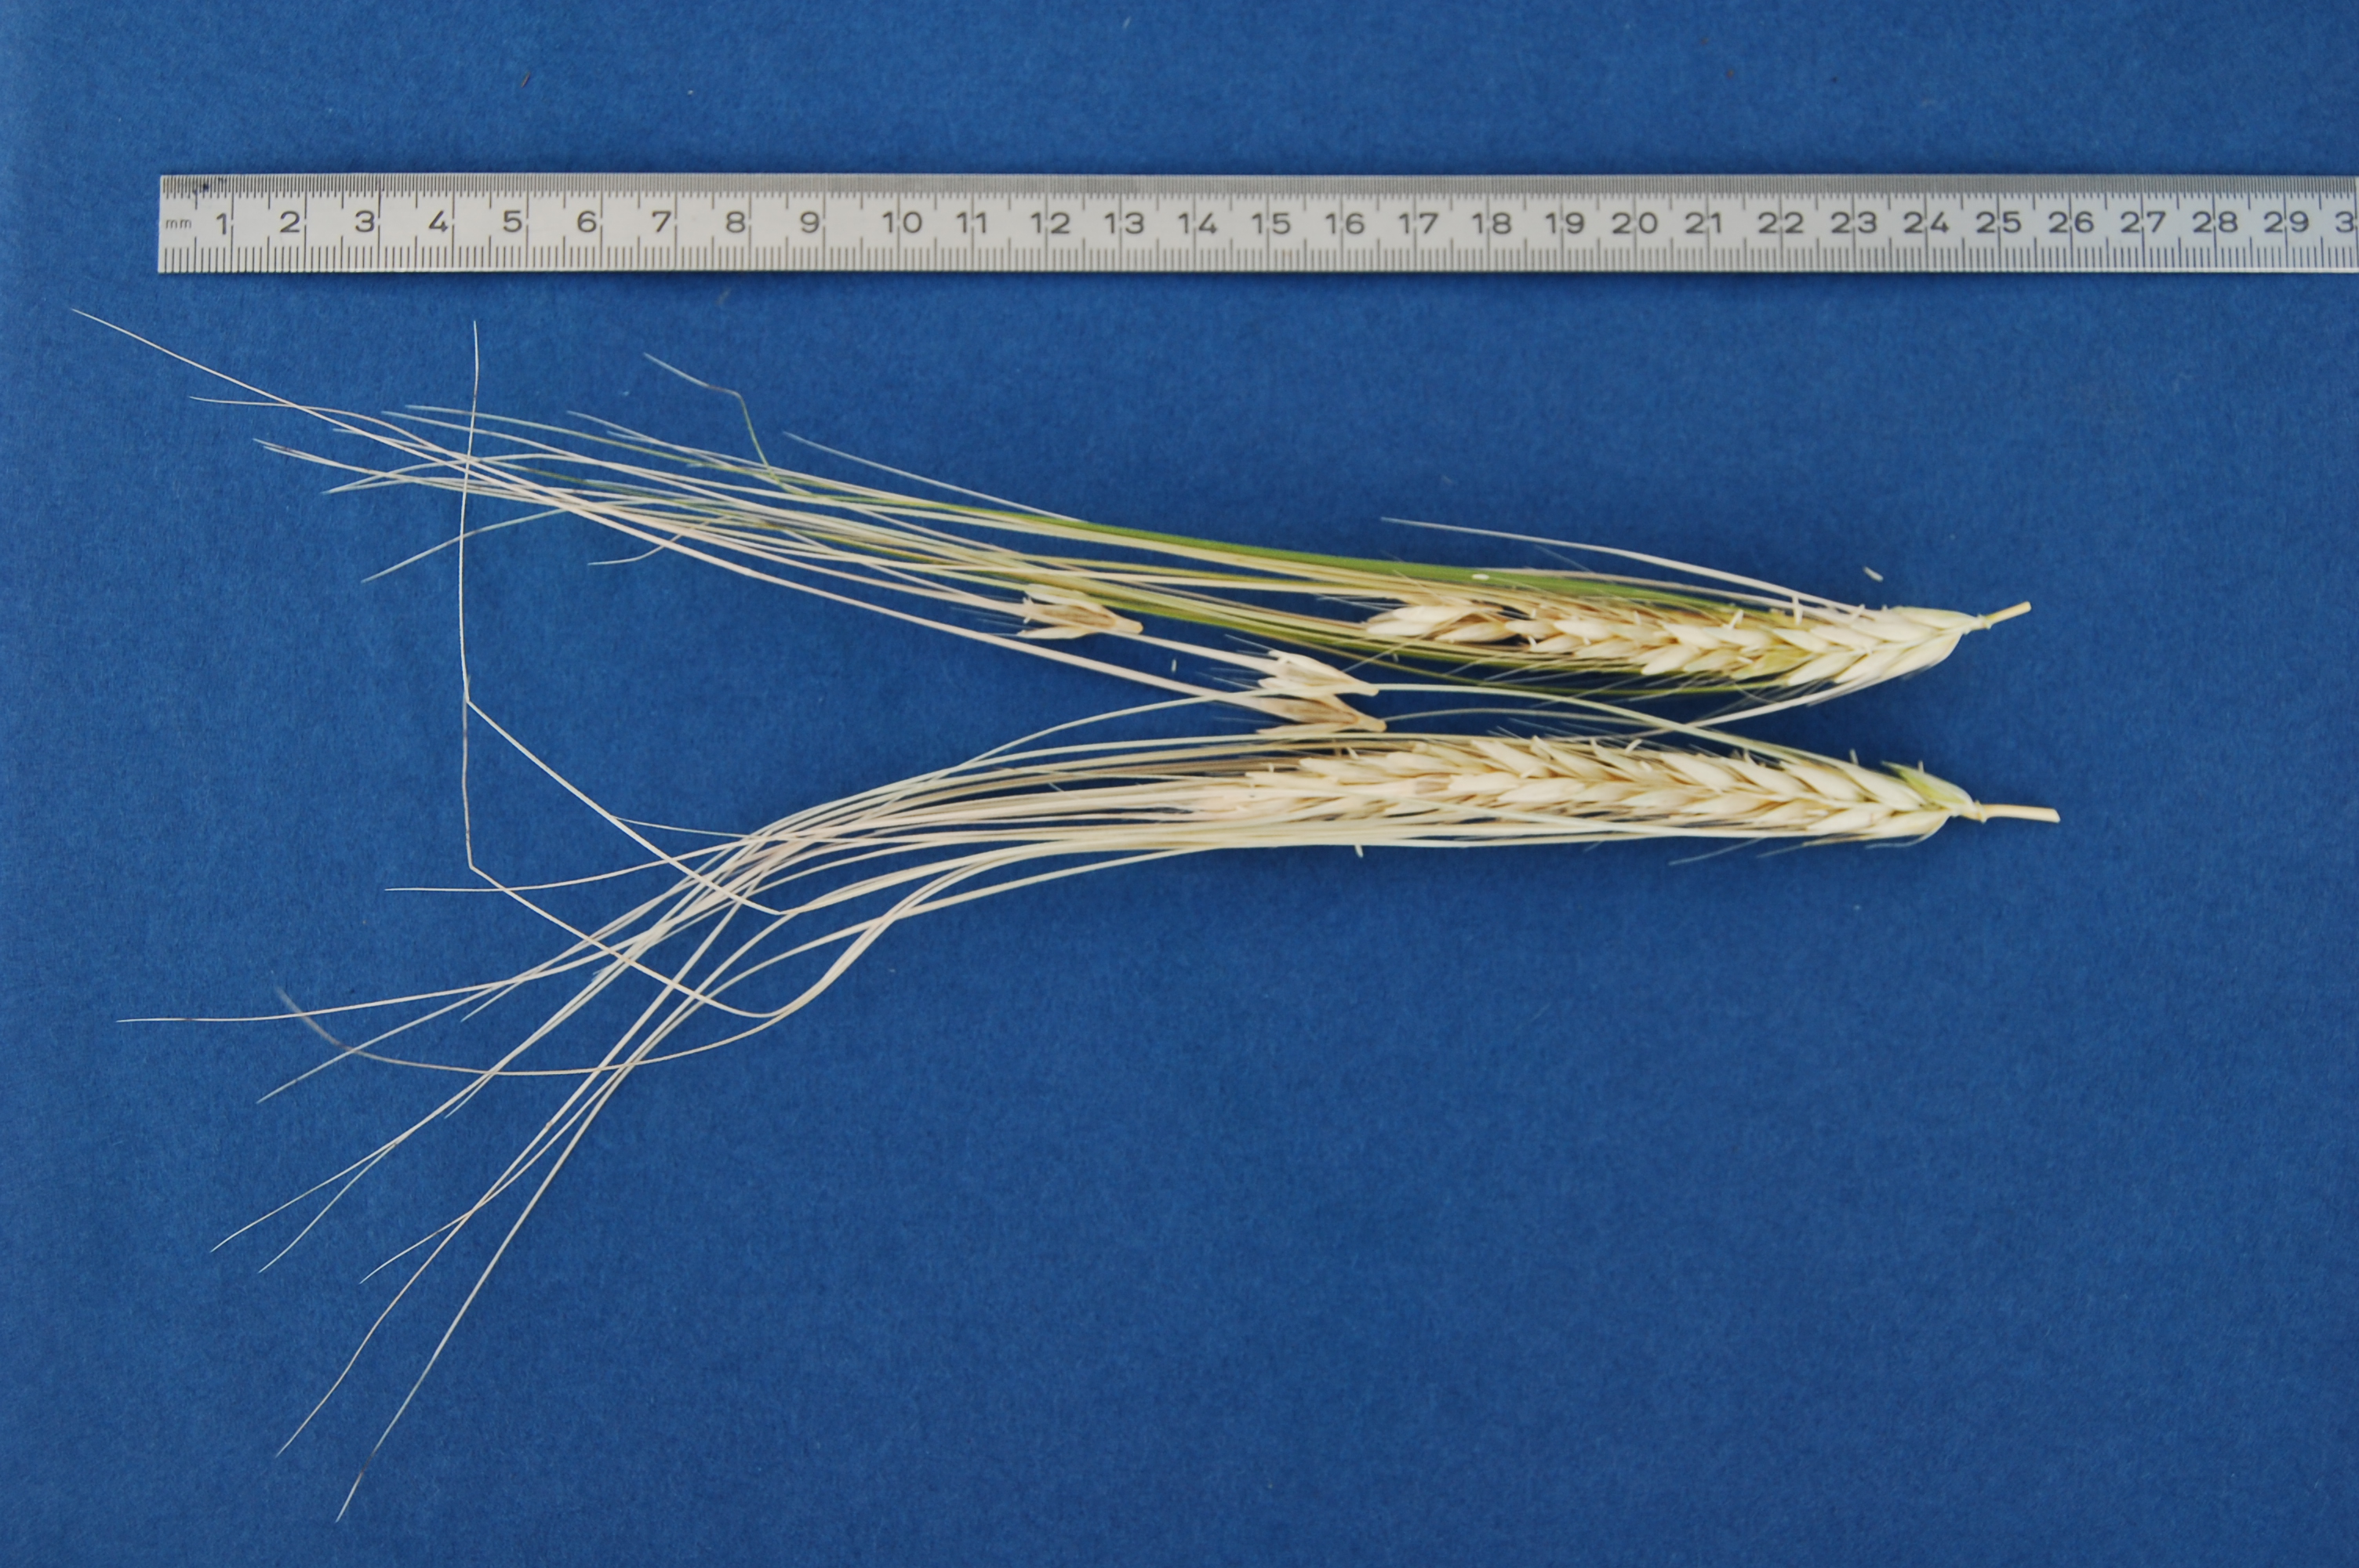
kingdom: Plantae
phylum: Tracheophyta
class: Liliopsida
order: Poales
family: Poaceae
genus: Hordeum
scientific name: Hordeum vulgare
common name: Common barley
